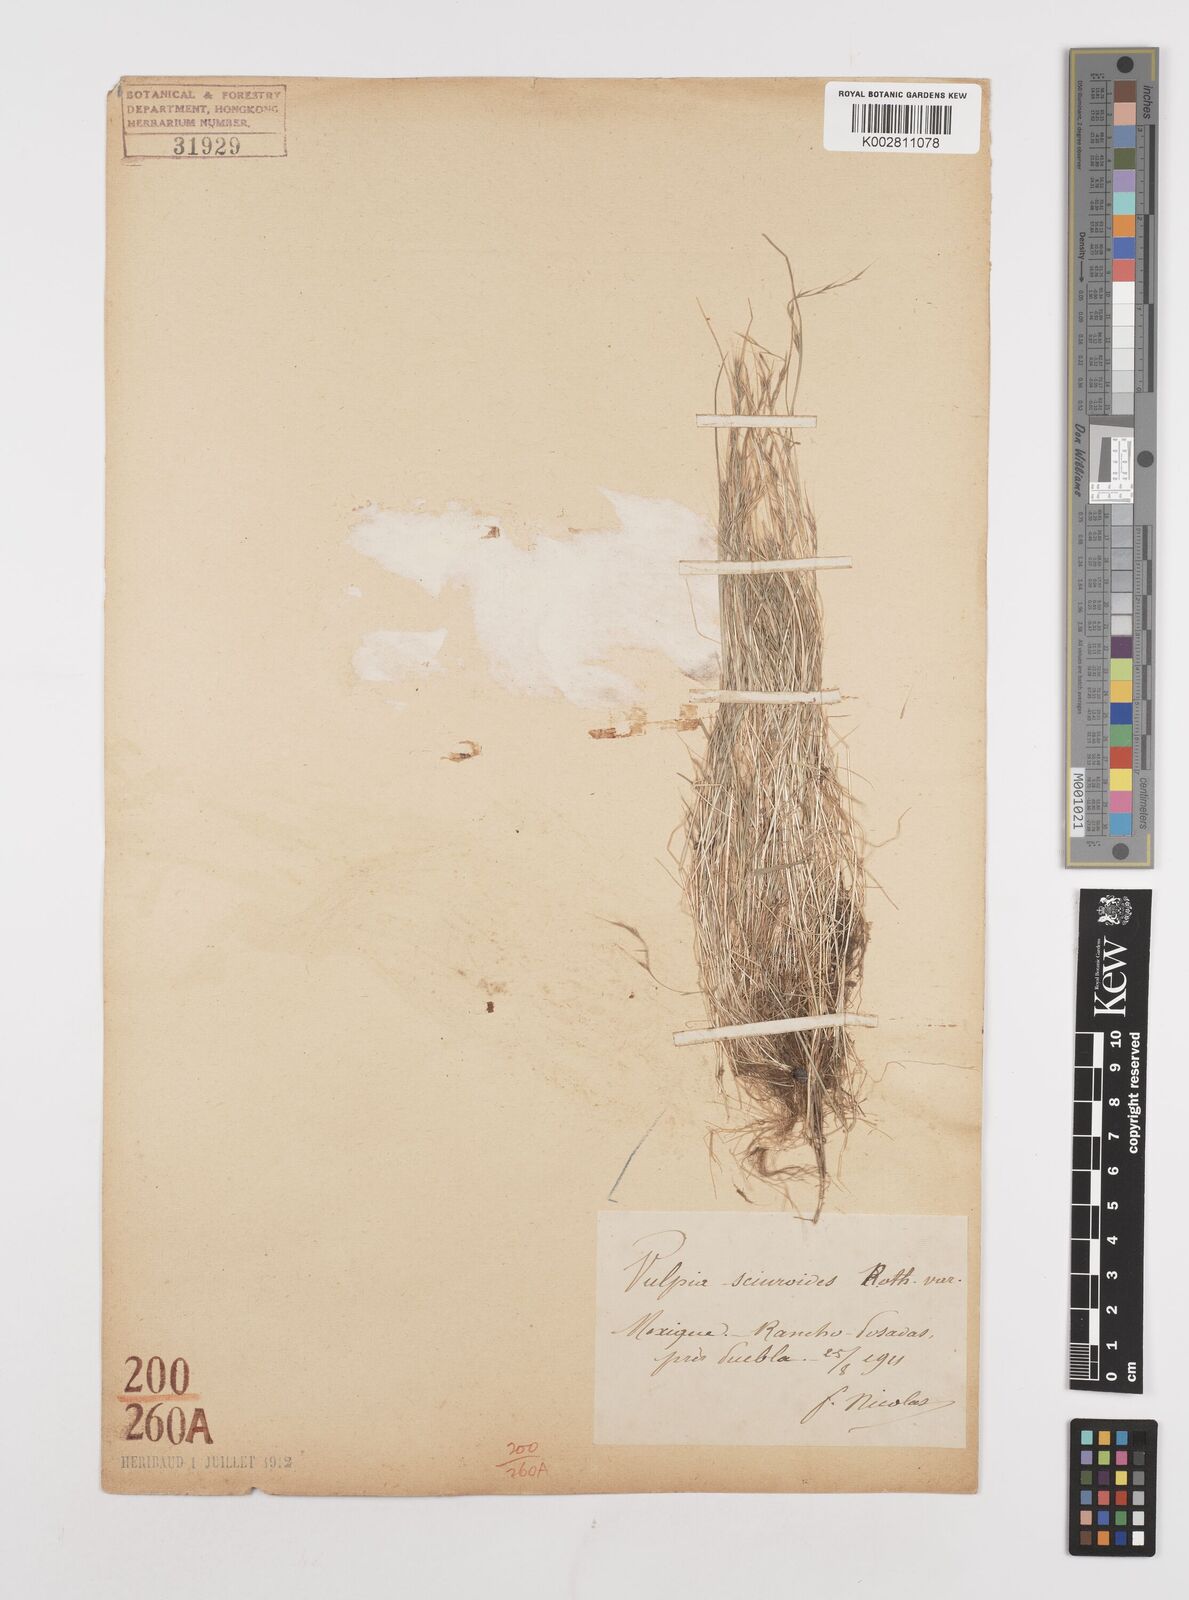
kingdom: Plantae
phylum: Tracheophyta
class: Liliopsida
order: Poales
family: Poaceae
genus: Festuca
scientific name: Festuca myuros
